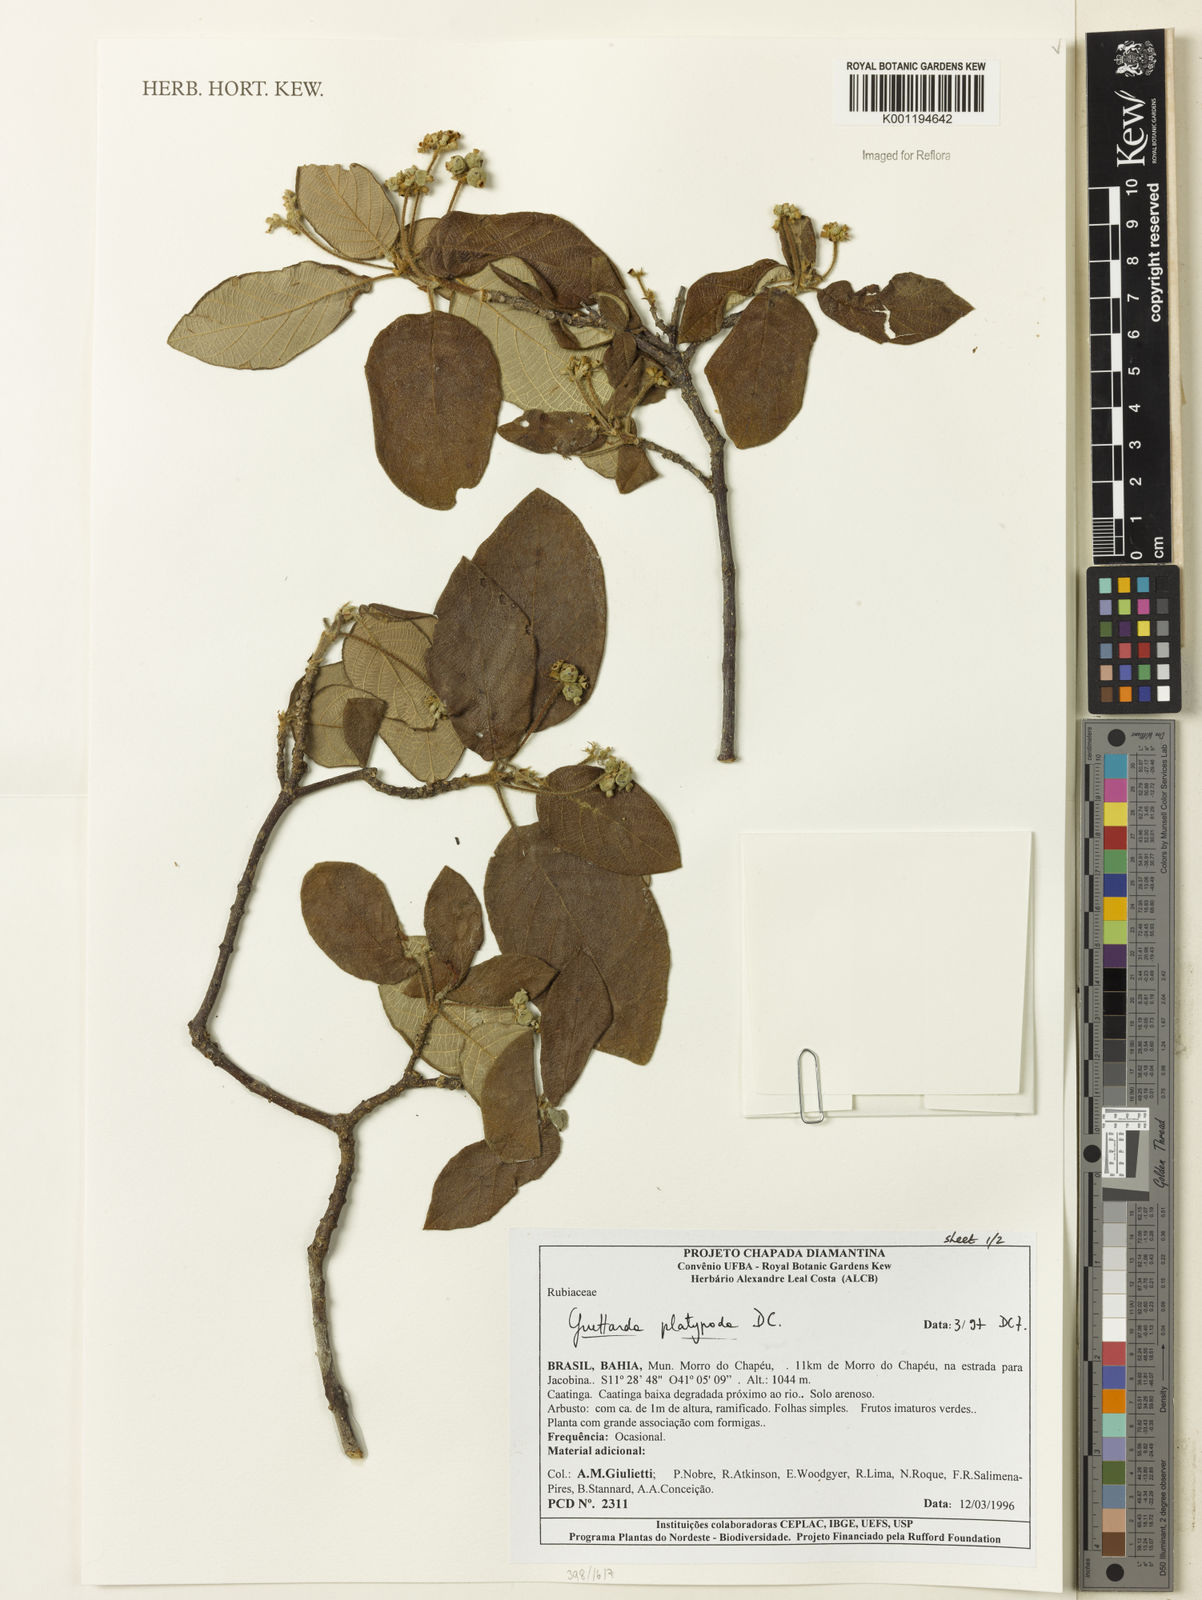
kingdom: Plantae
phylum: Tracheophyta
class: Magnoliopsida
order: Gentianales
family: Rubiaceae
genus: Guettarda
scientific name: Guettarda platypoda
